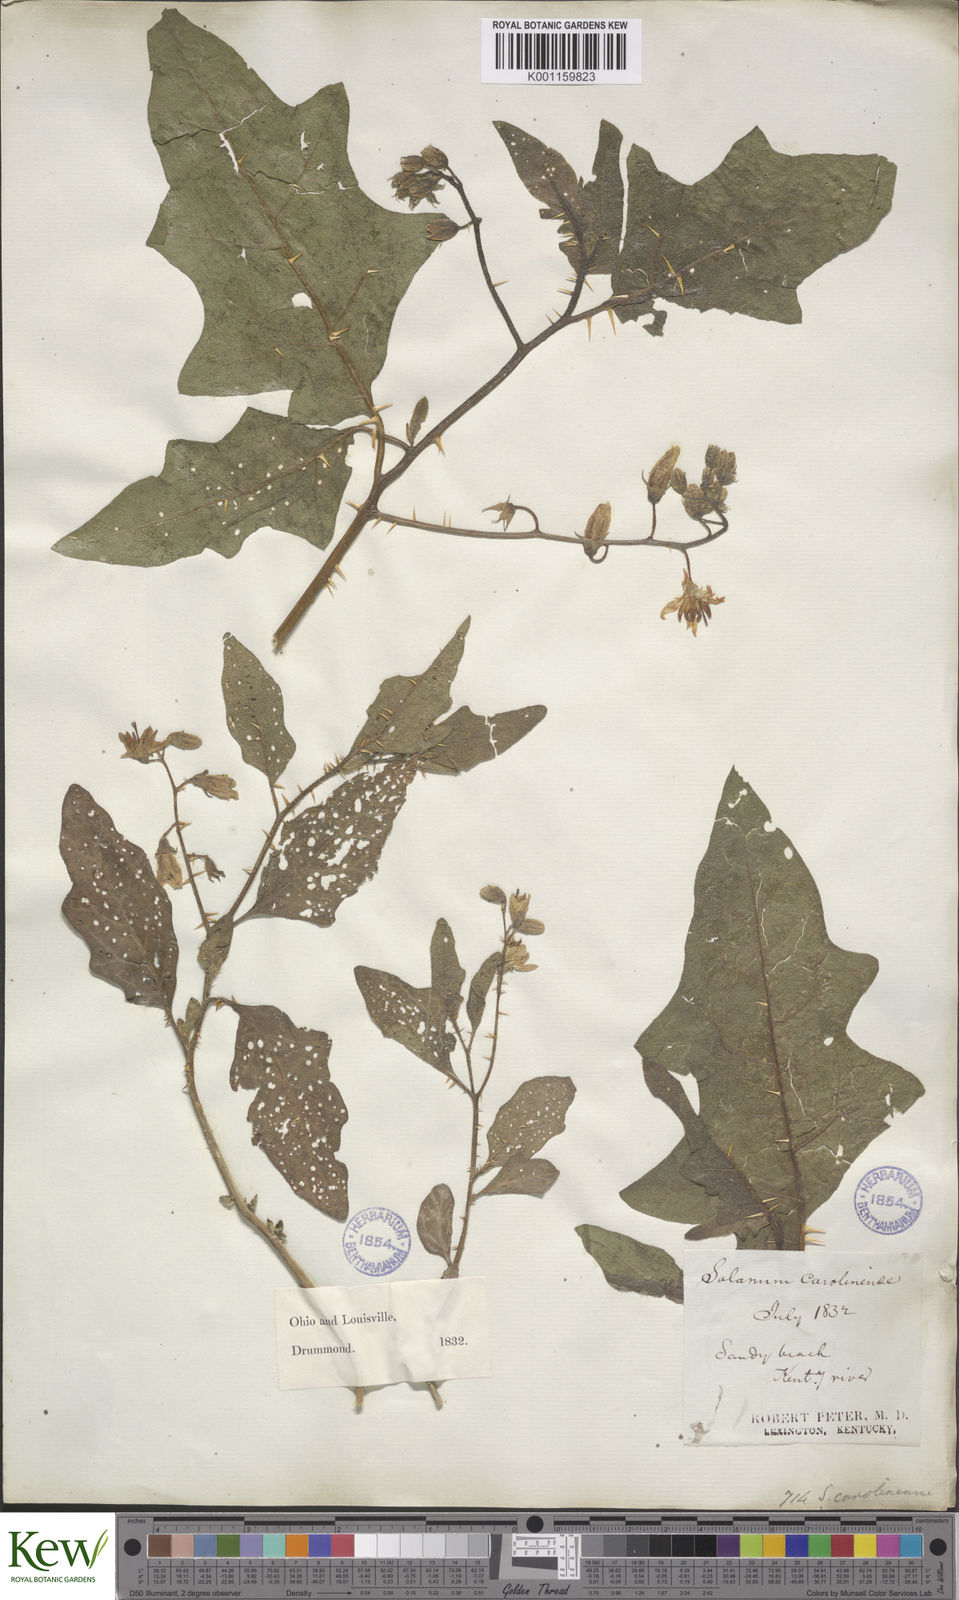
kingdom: Plantae
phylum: Tracheophyta
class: Magnoliopsida
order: Solanales
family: Solanaceae
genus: Solanum
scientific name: Solanum carolinense
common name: Horse-nettle
